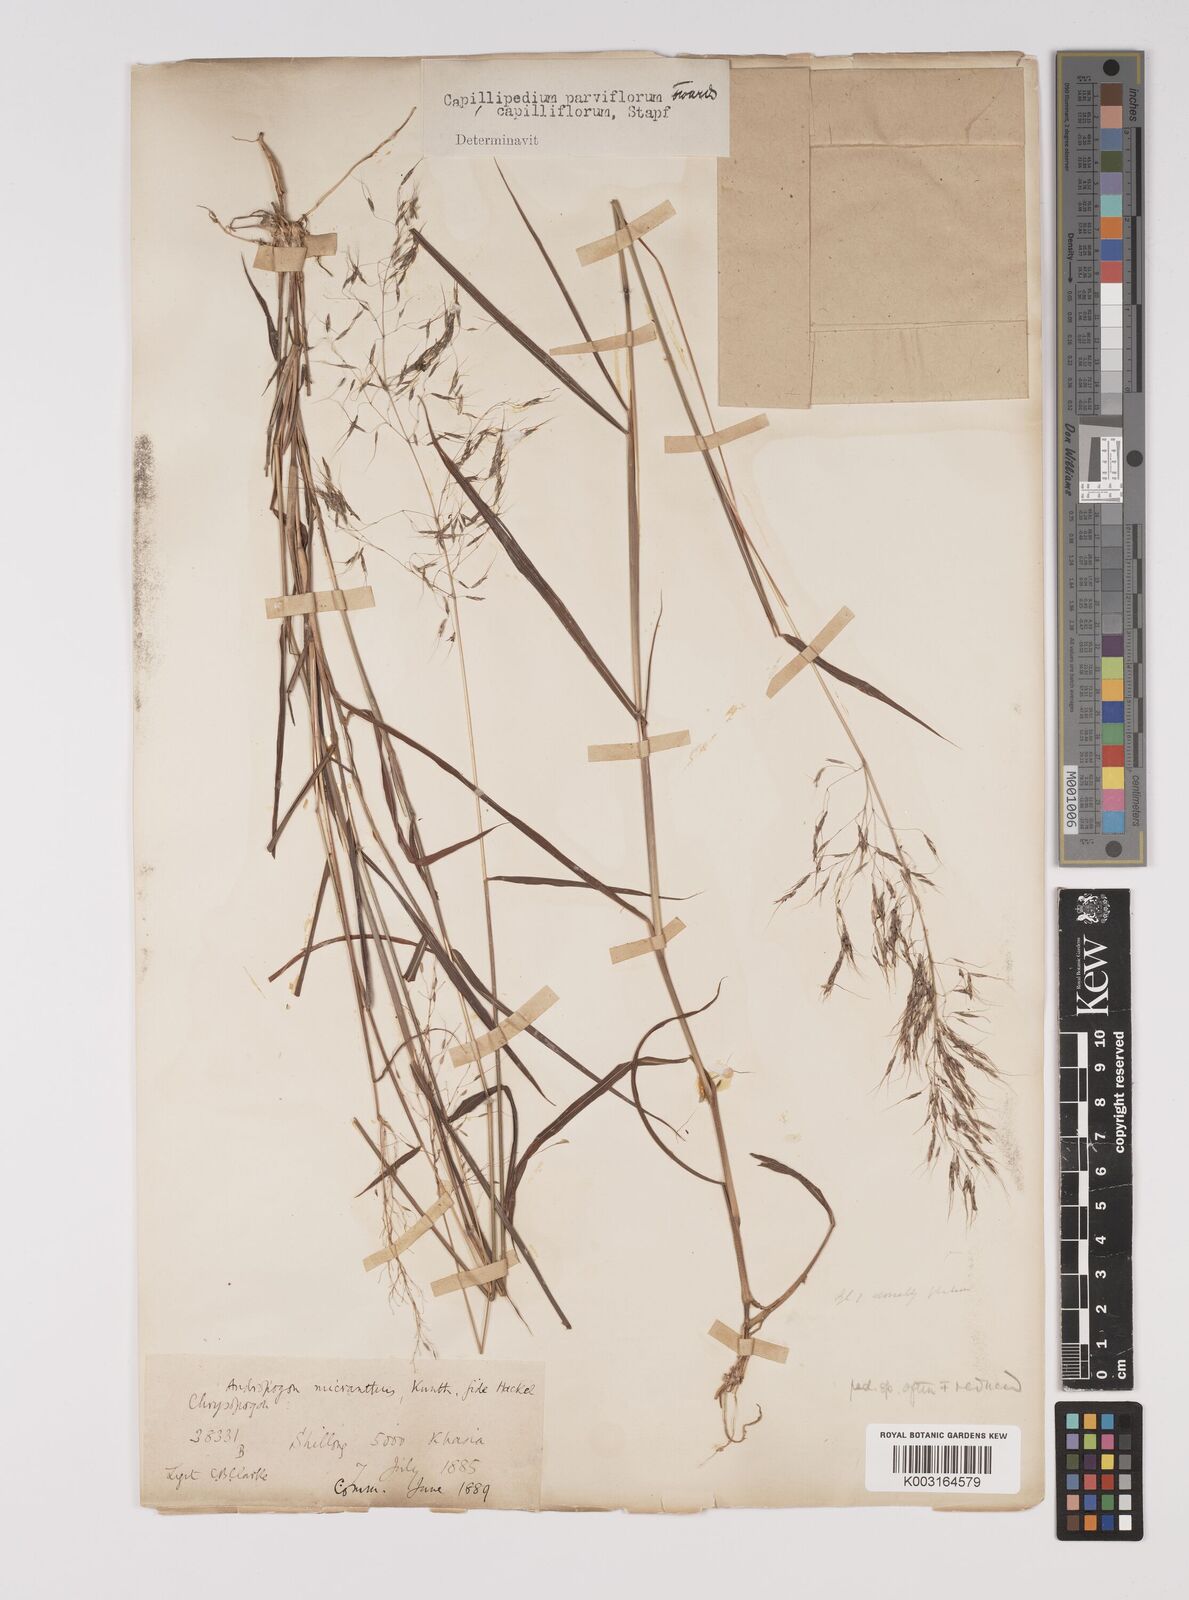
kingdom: Plantae
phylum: Tracheophyta
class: Liliopsida
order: Poales
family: Poaceae
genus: Capillipedium
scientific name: Capillipedium spicigerum
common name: Scented-top grass
